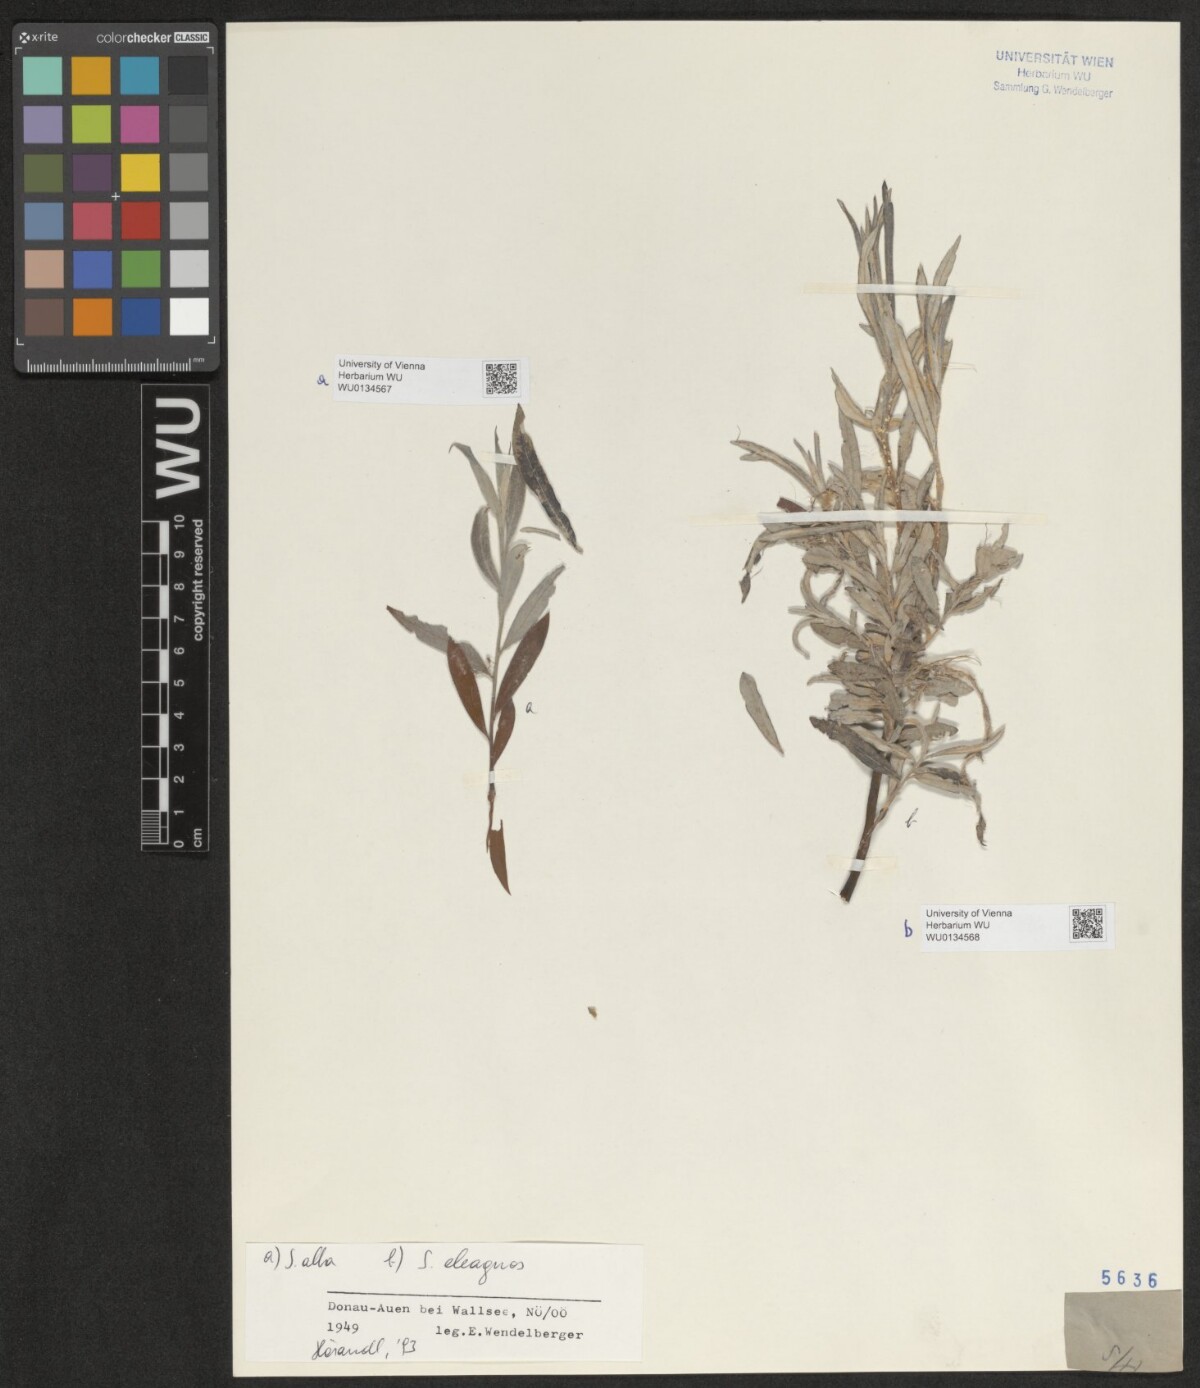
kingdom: Plantae
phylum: Tracheophyta
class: Magnoliopsida
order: Malpighiales
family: Salicaceae
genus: Salix
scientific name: Salix alba
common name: White willow
